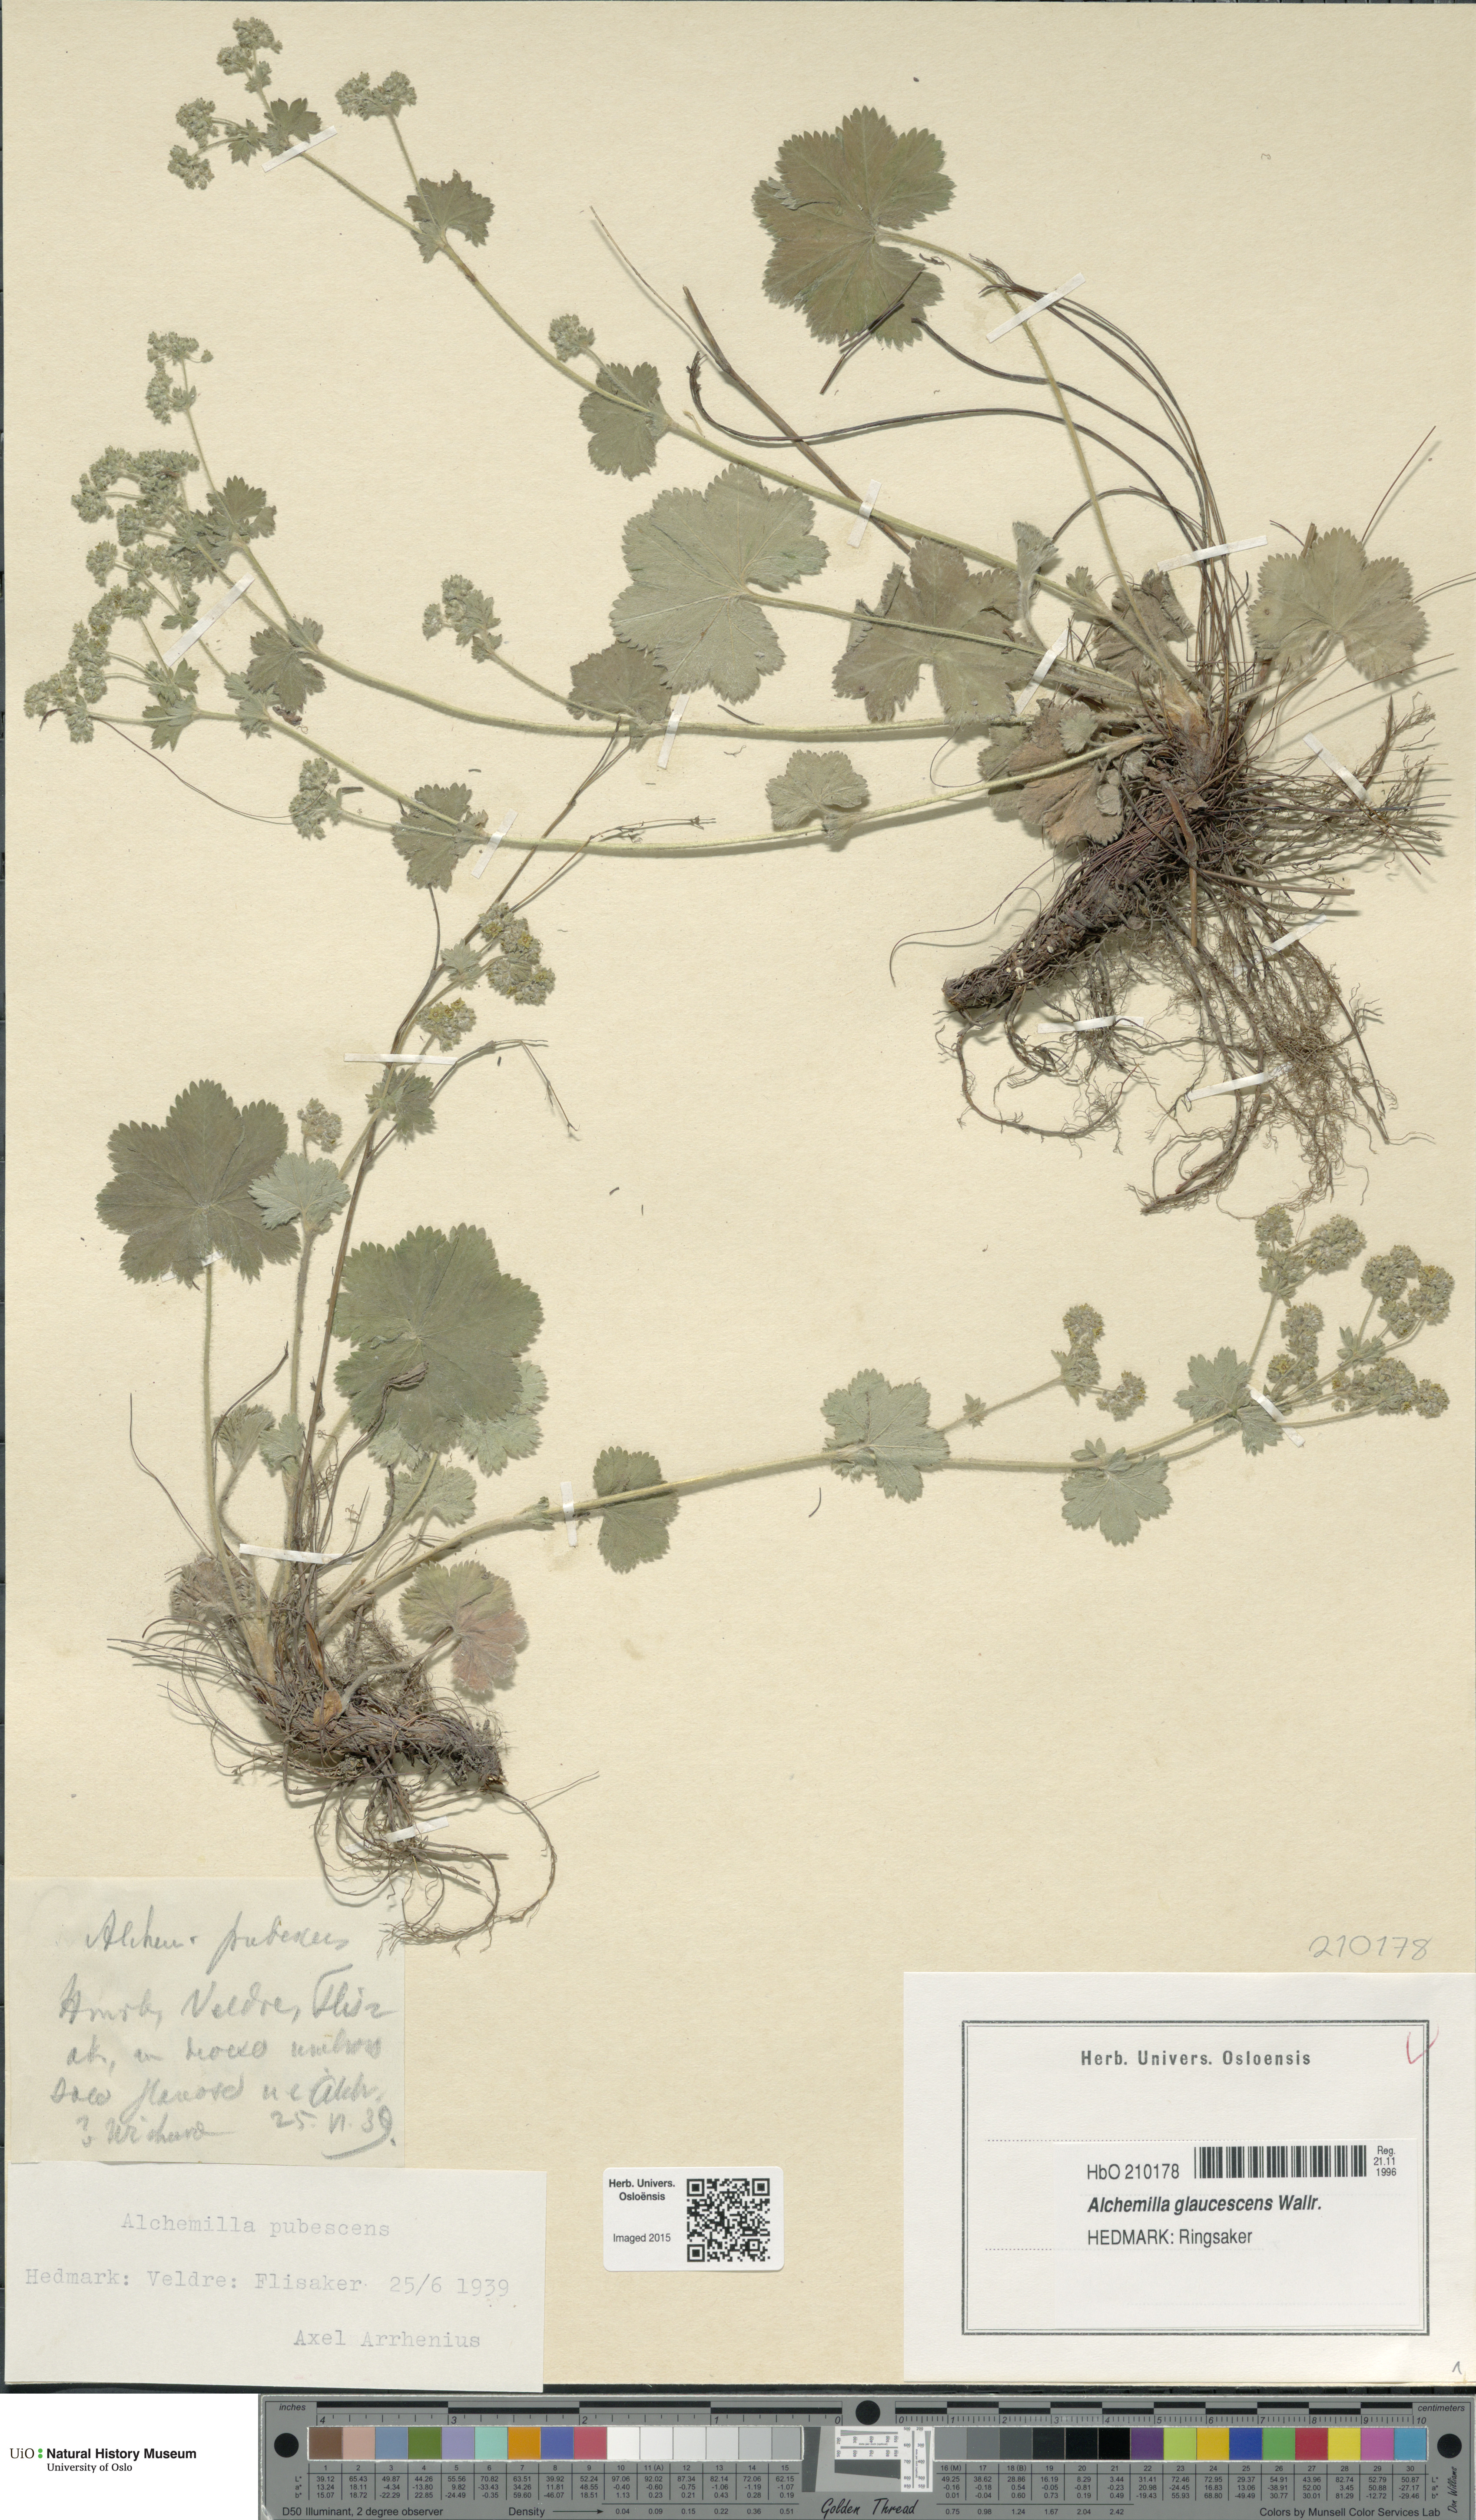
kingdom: Plantae
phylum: Tracheophyta
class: Magnoliopsida
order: Rosales
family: Rosaceae
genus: Alchemilla
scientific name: Alchemilla glaucescens
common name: Silky lady's mantle
